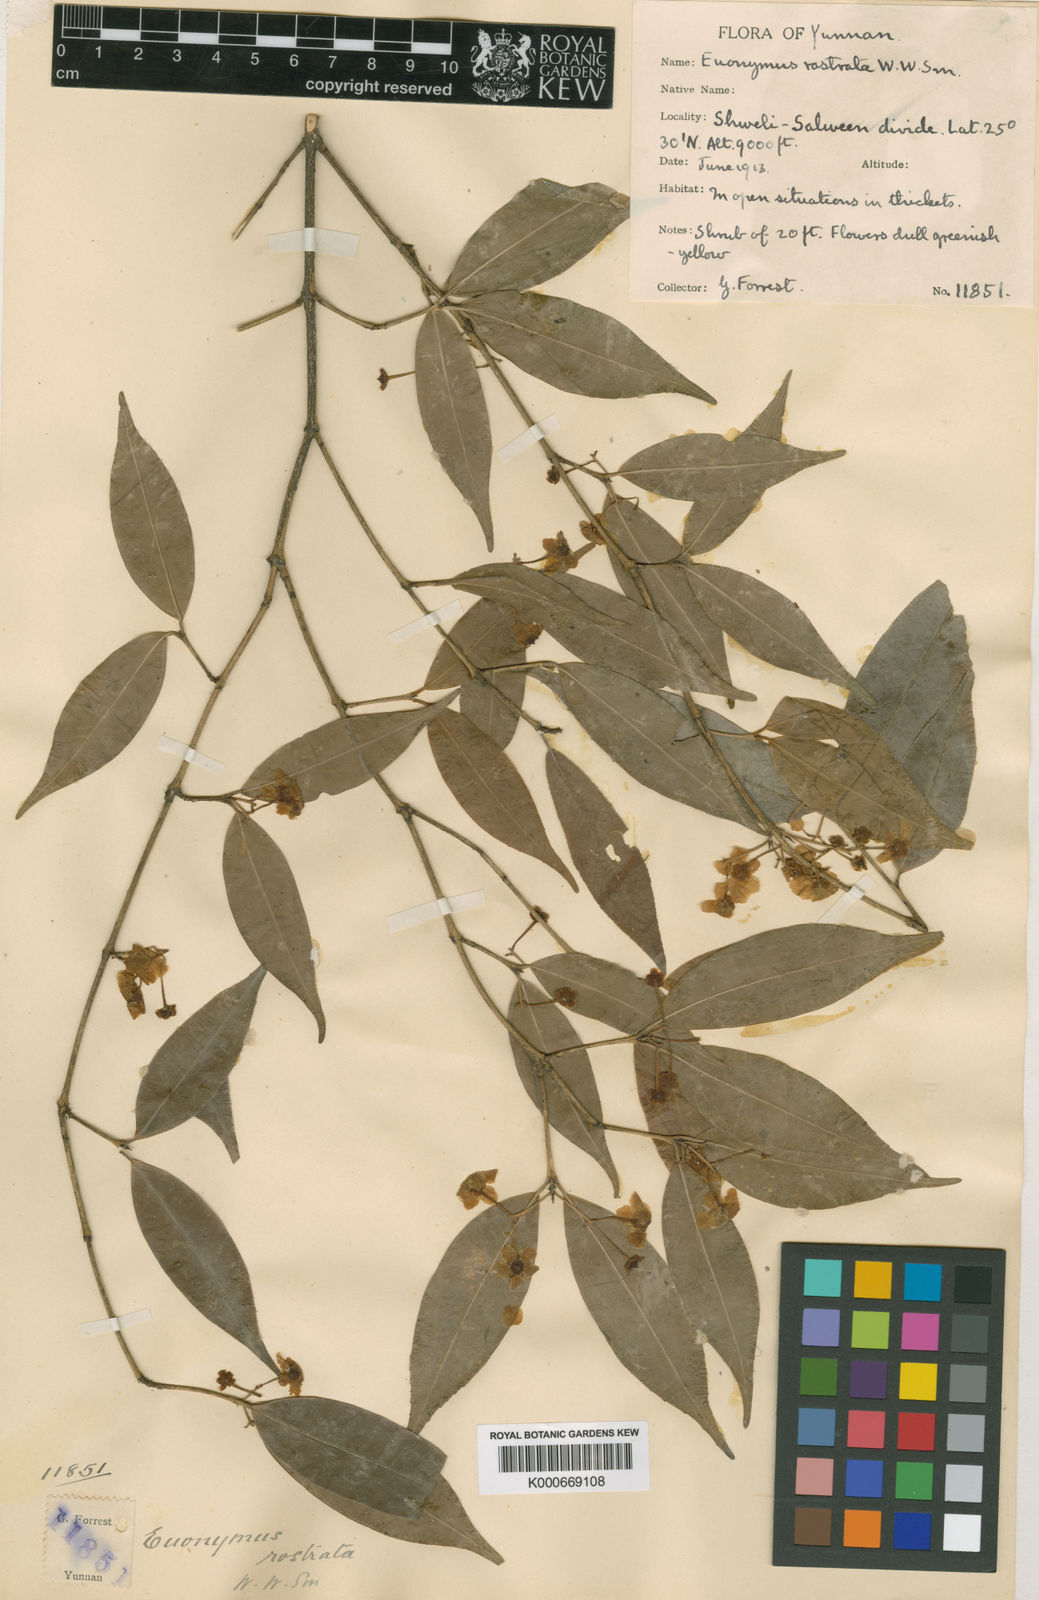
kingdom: Plantae
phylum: Tracheophyta
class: Magnoliopsida
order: Celastrales
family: Celastraceae
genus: Euonymus
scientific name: Euonymus laxiflorus
